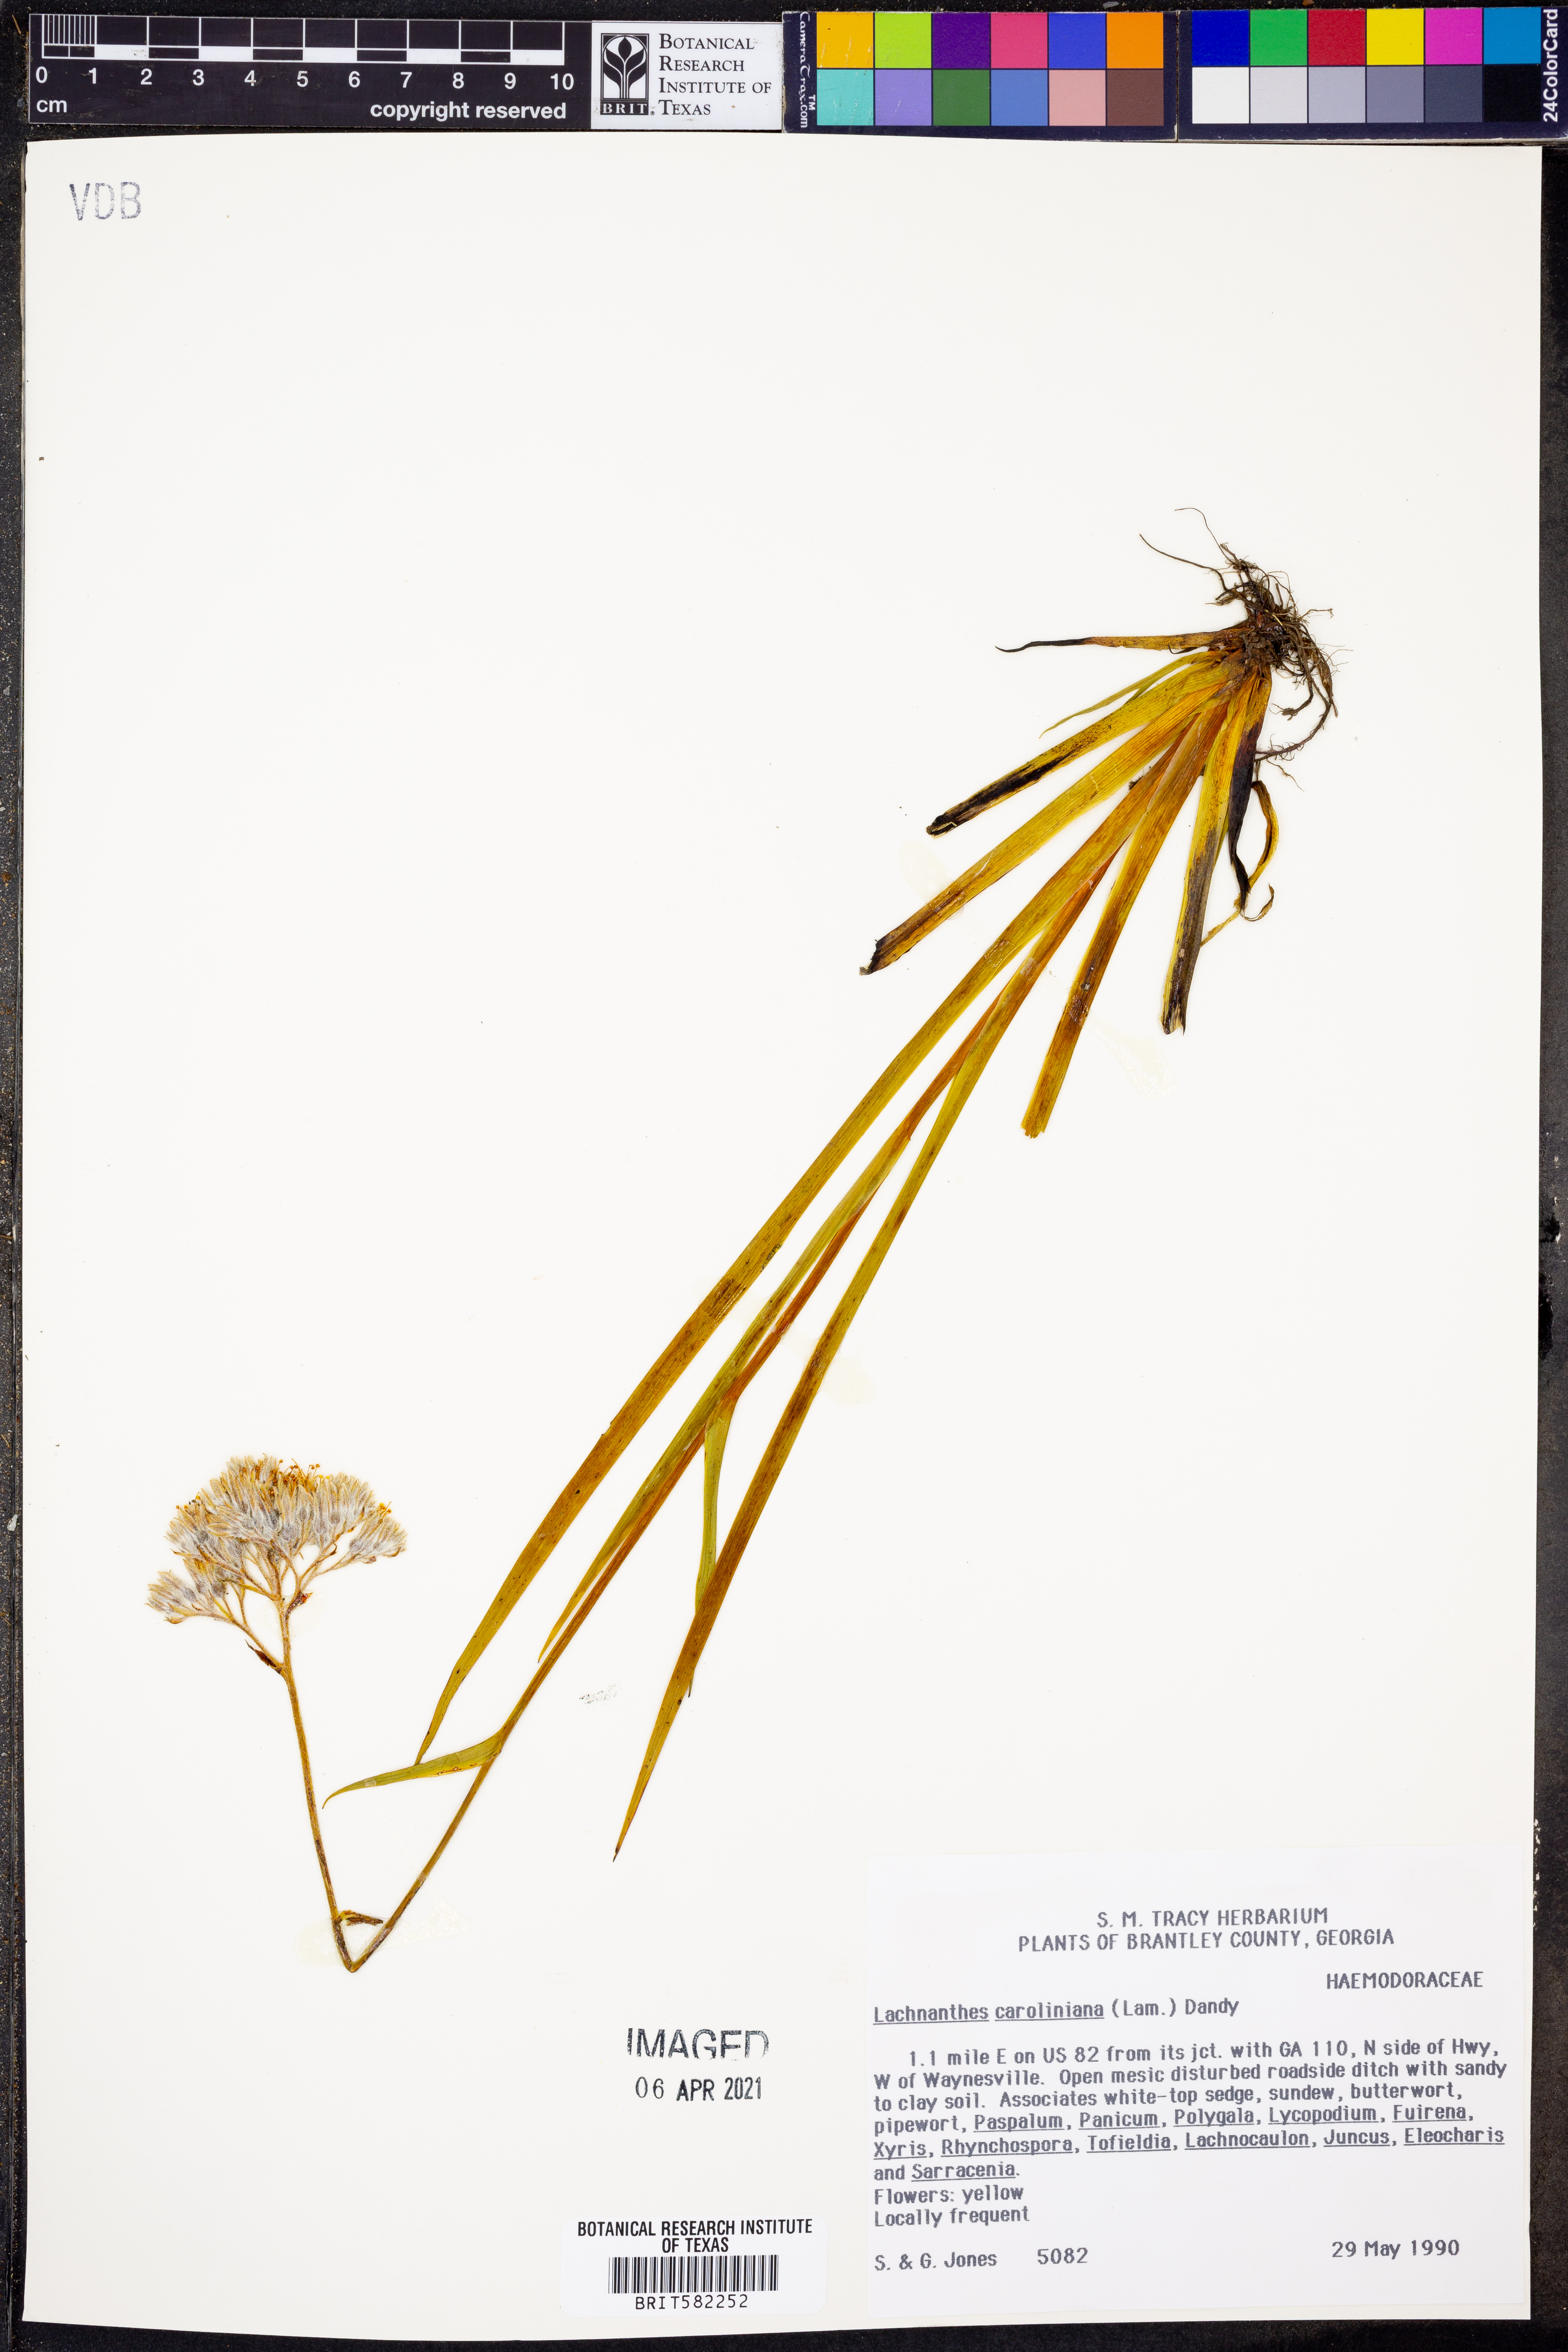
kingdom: Plantae
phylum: Tracheophyta
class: Liliopsida
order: Commelinales
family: Haemodoraceae
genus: Lachnanthes
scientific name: Lachnanthes caroliniana
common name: Carolina redroot
